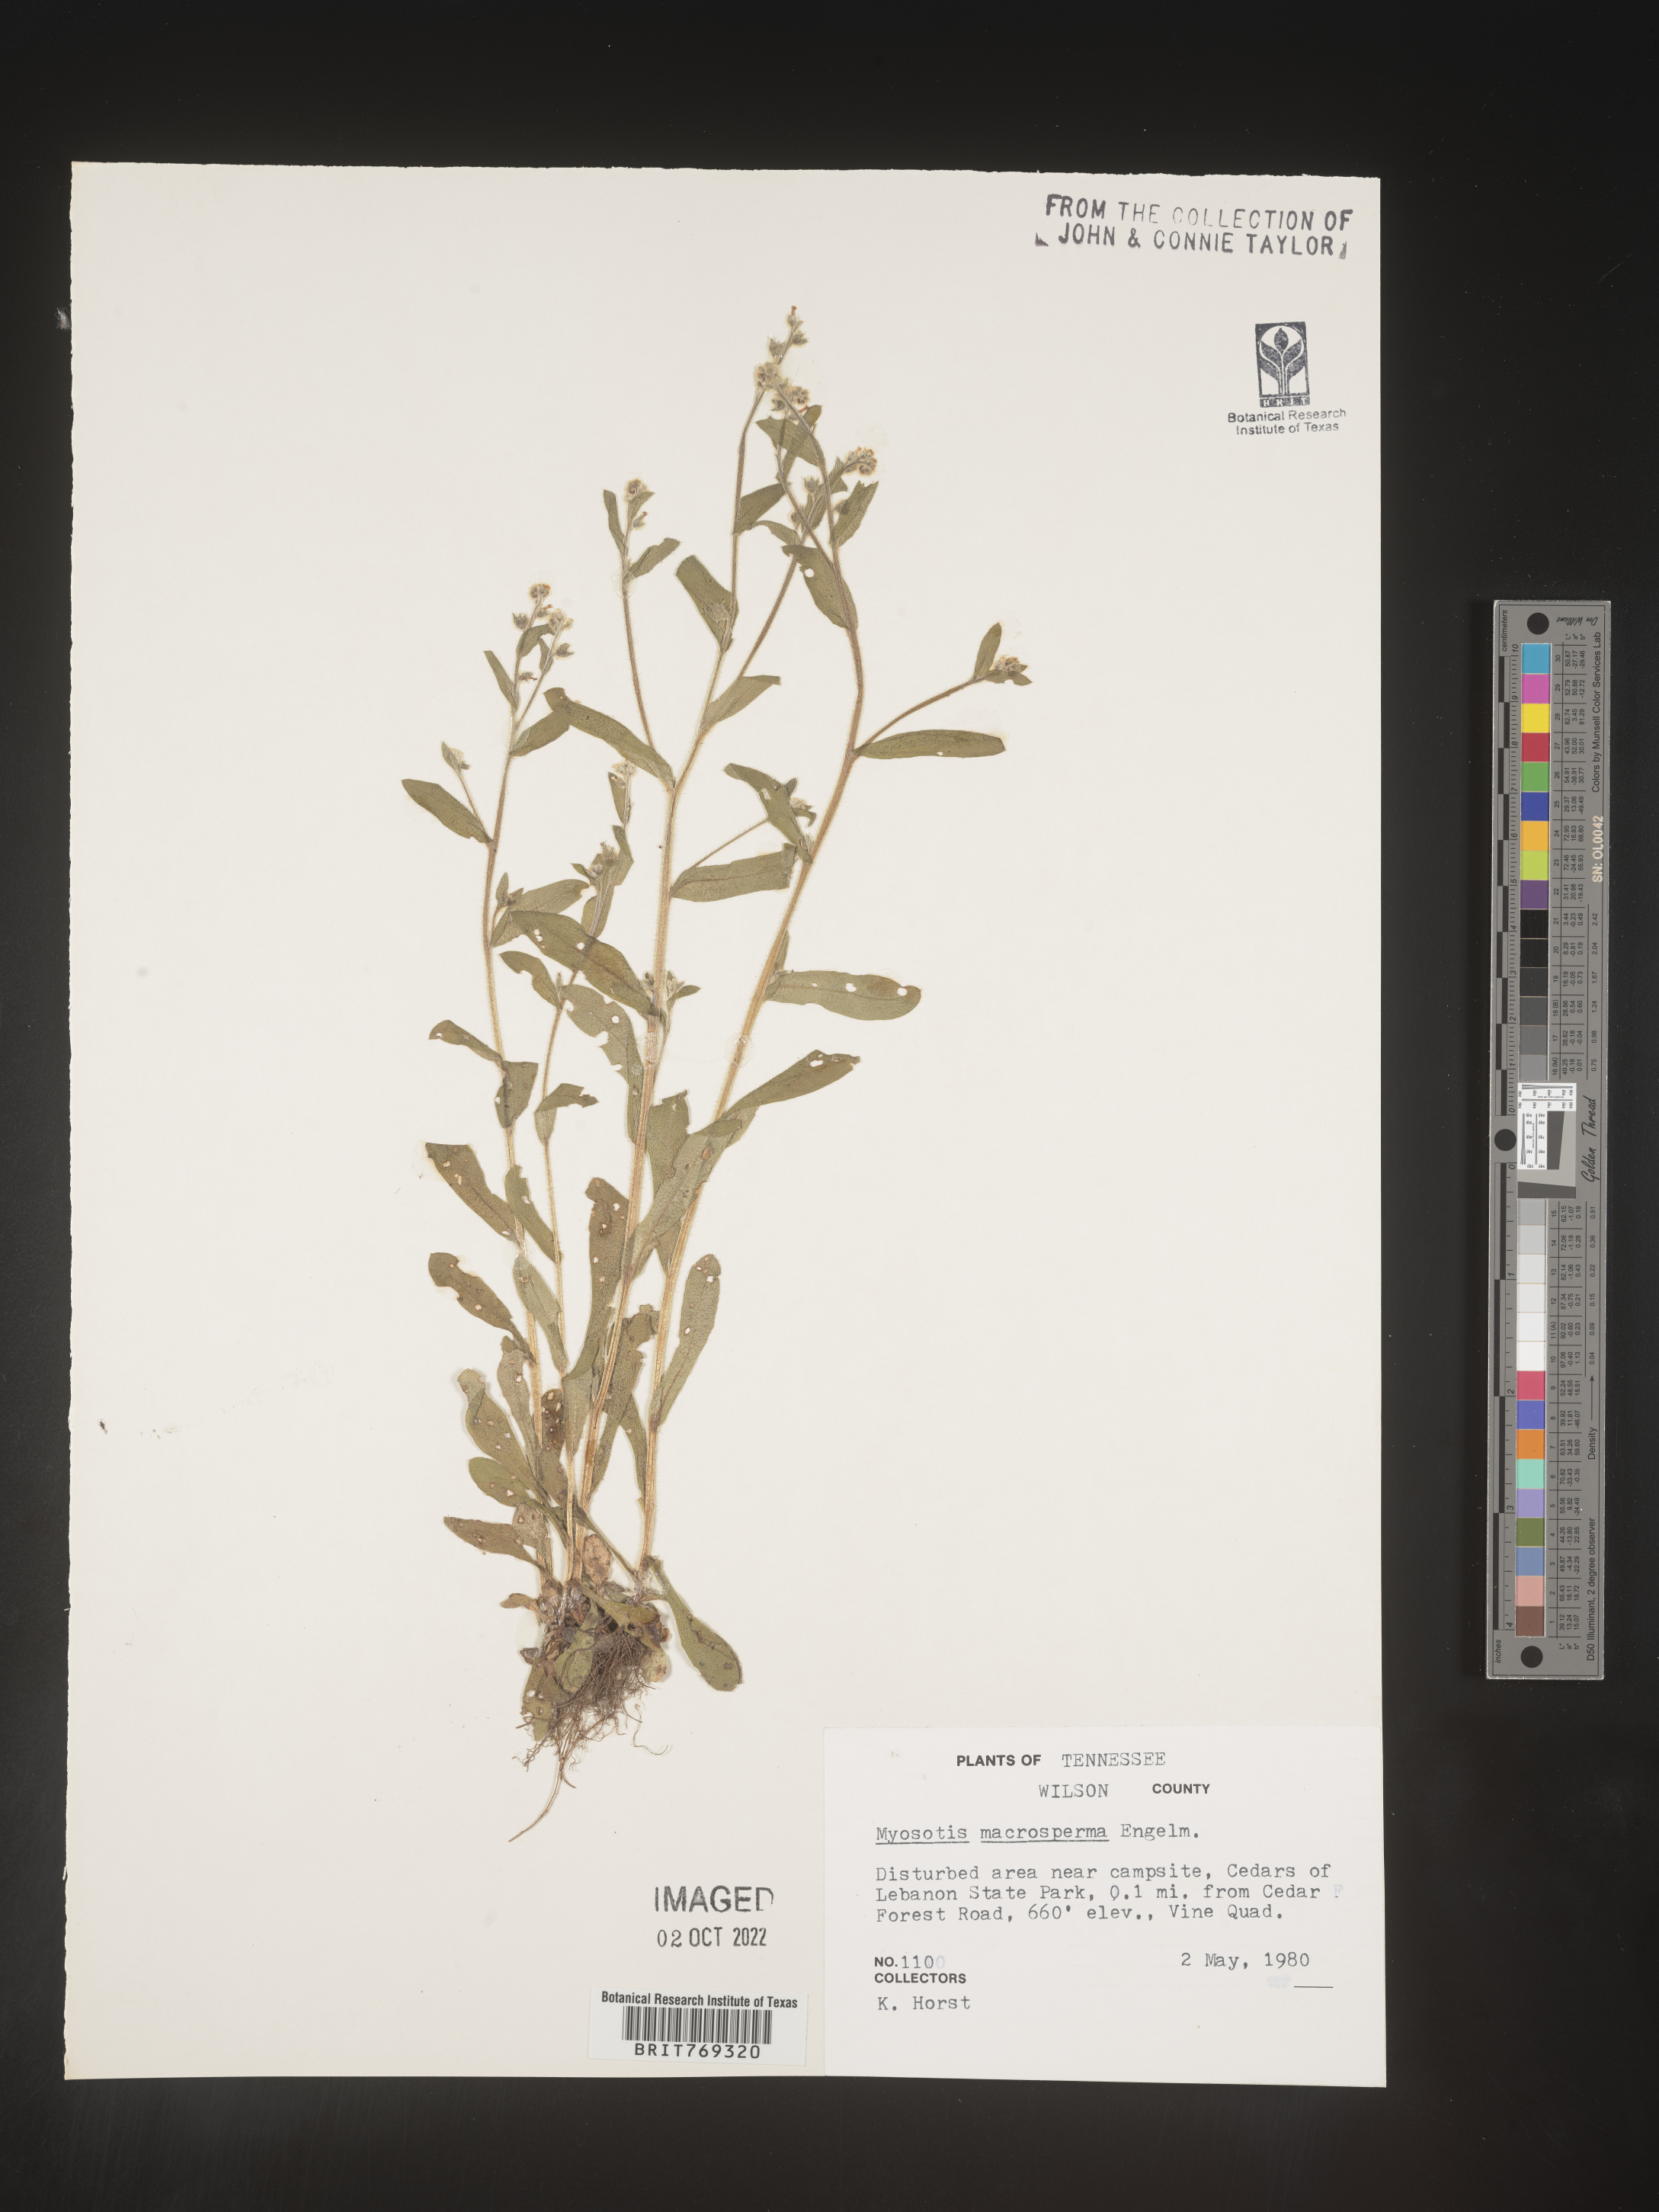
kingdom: Plantae
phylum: Tracheophyta
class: Magnoliopsida
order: Boraginales
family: Boraginaceae
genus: Myosotis
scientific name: Myosotis macrosperma
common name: Large-seed forget-me-not
